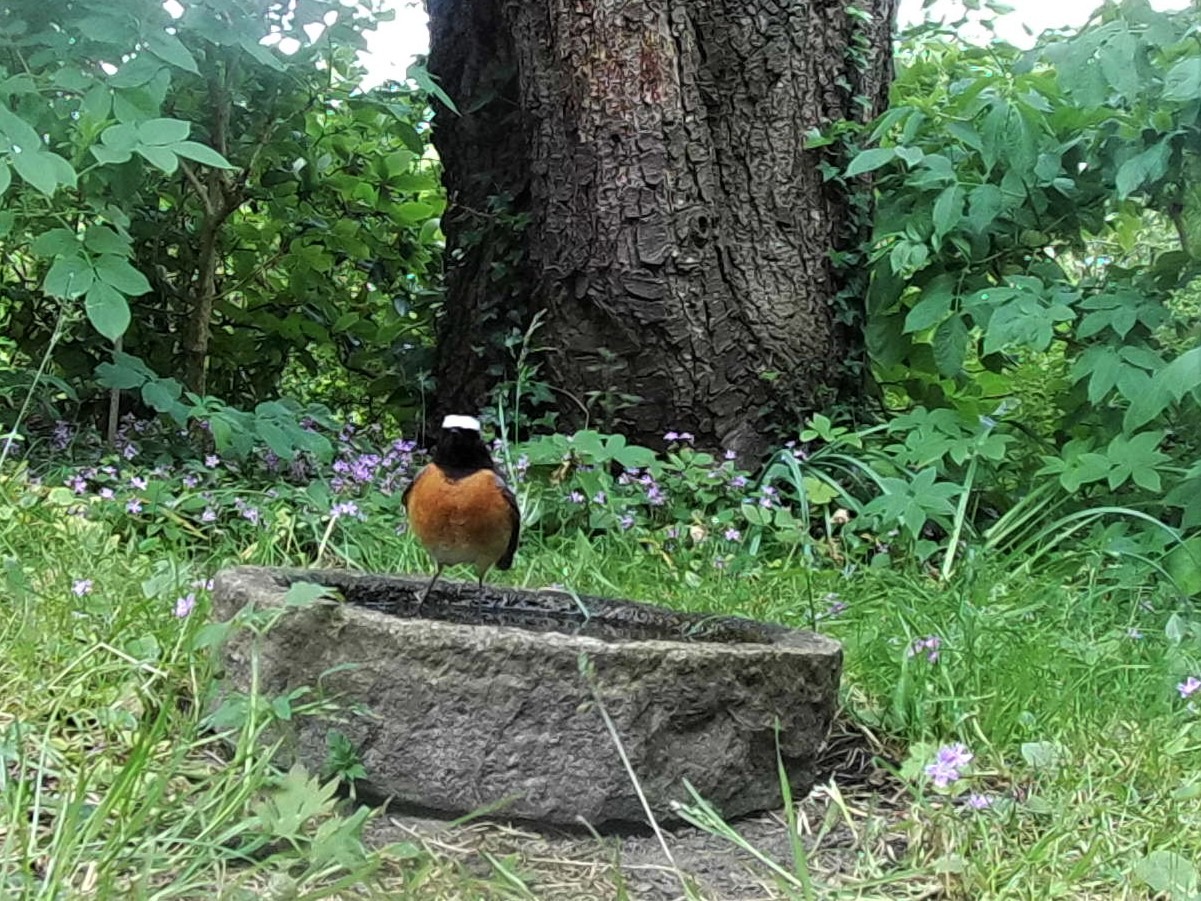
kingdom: Animalia
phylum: Chordata
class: Aves
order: Passeriformes
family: Muscicapidae
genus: Phoenicurus
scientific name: Phoenicurus phoenicurus
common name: Rødstjert
